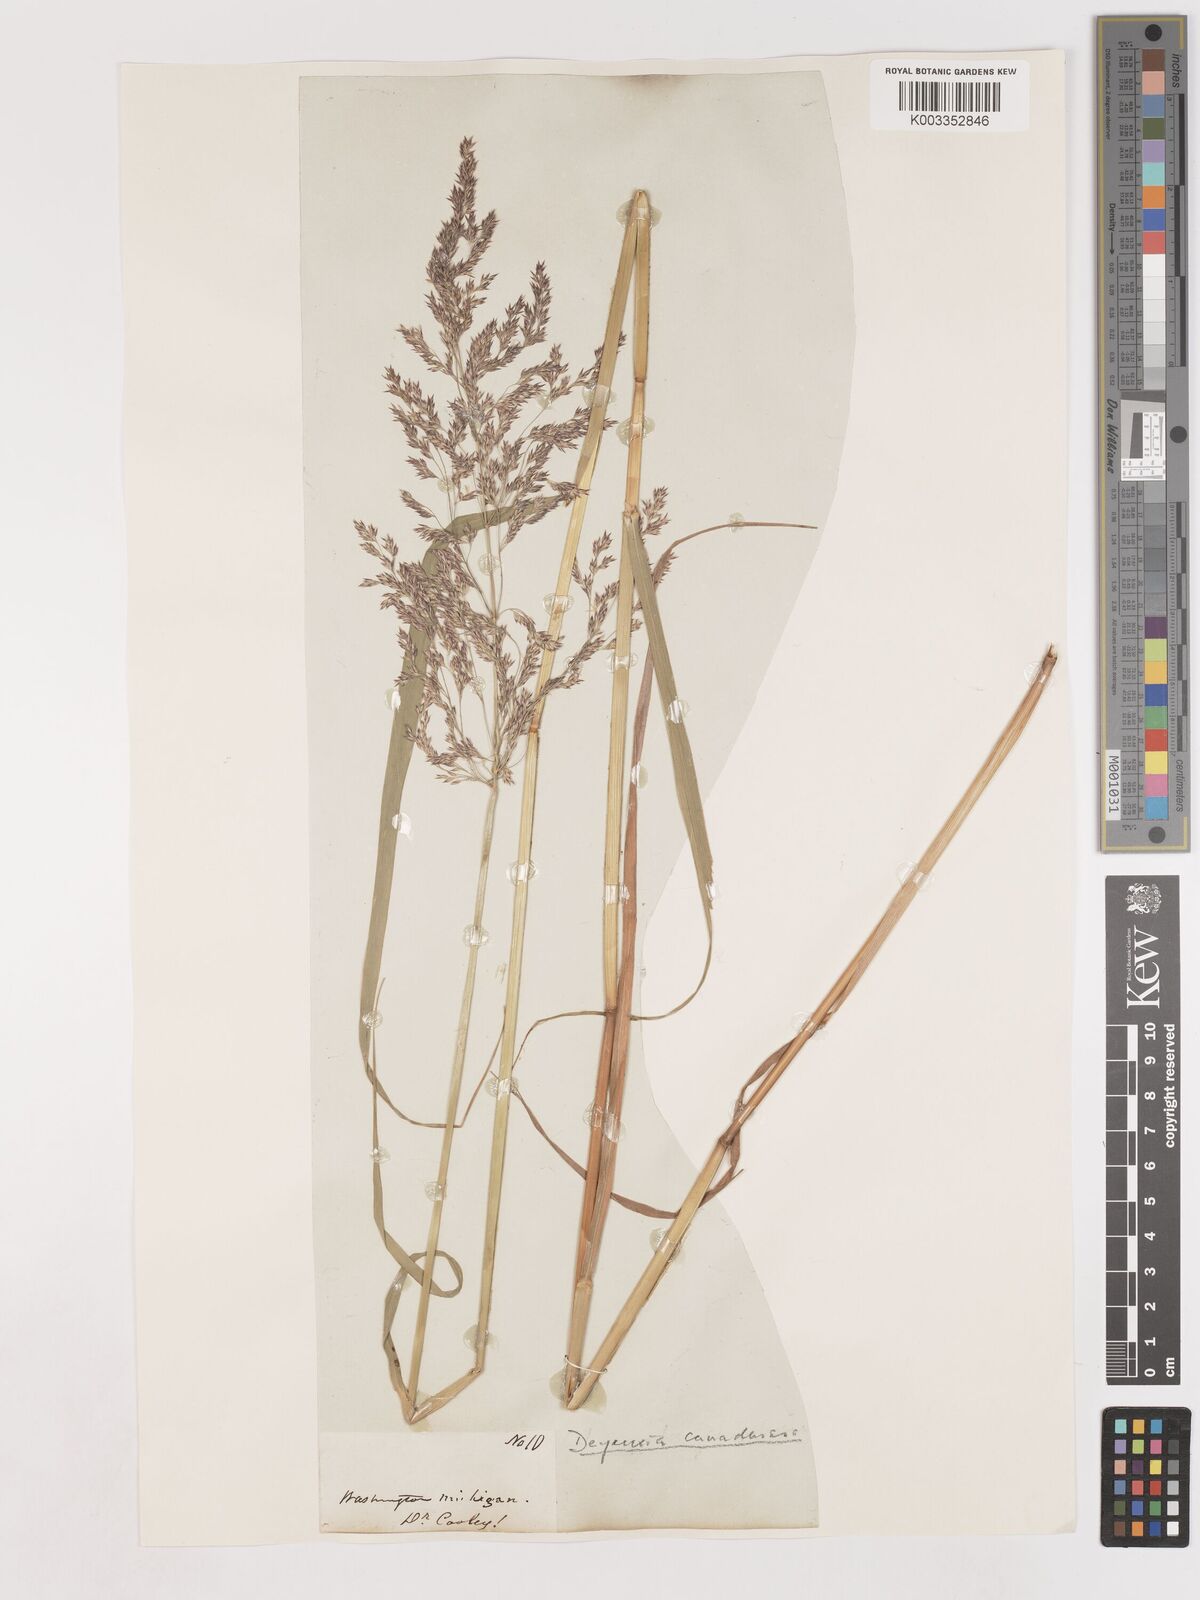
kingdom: Plantae
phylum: Tracheophyta
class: Liliopsida
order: Poales
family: Poaceae
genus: Calamagrostis
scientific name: Calamagrostis canadensis
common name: Canada bluejoint
